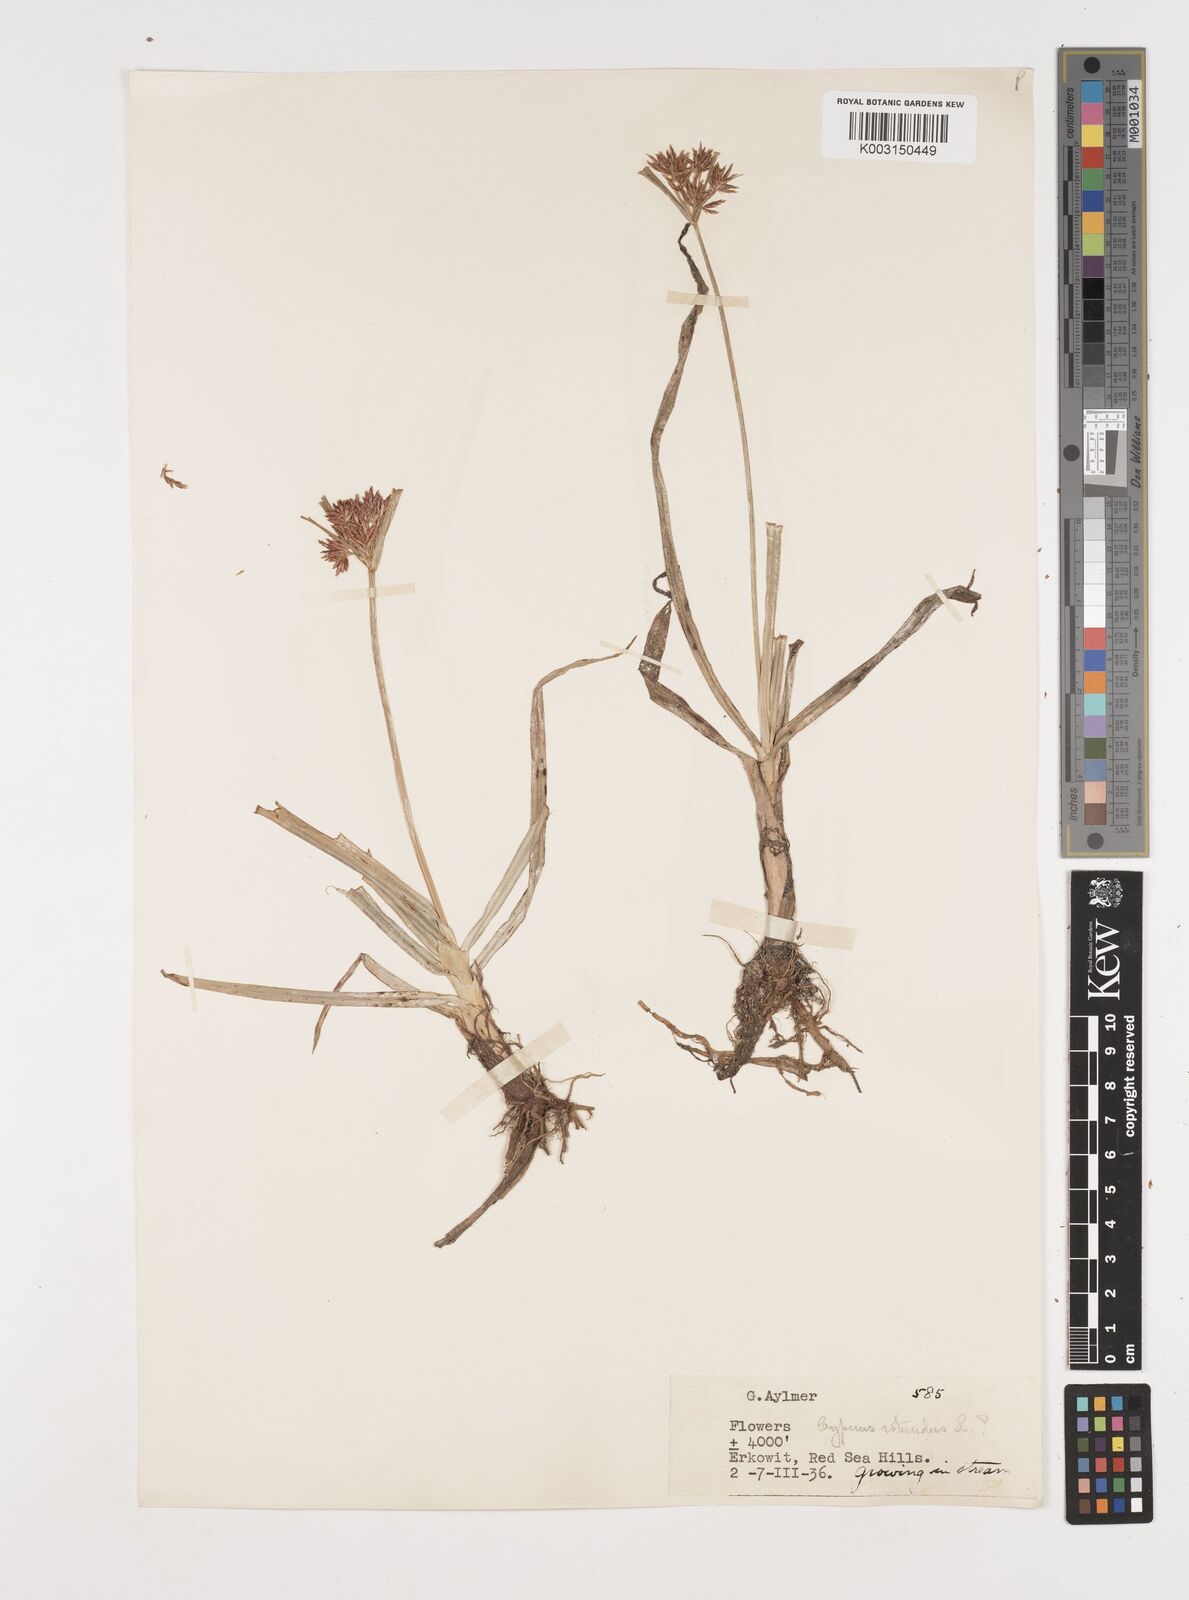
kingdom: Plantae
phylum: Tracheophyta
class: Liliopsida
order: Poales
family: Cyperaceae
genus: Cyperus
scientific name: Cyperus rotundus
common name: Nutgrass
